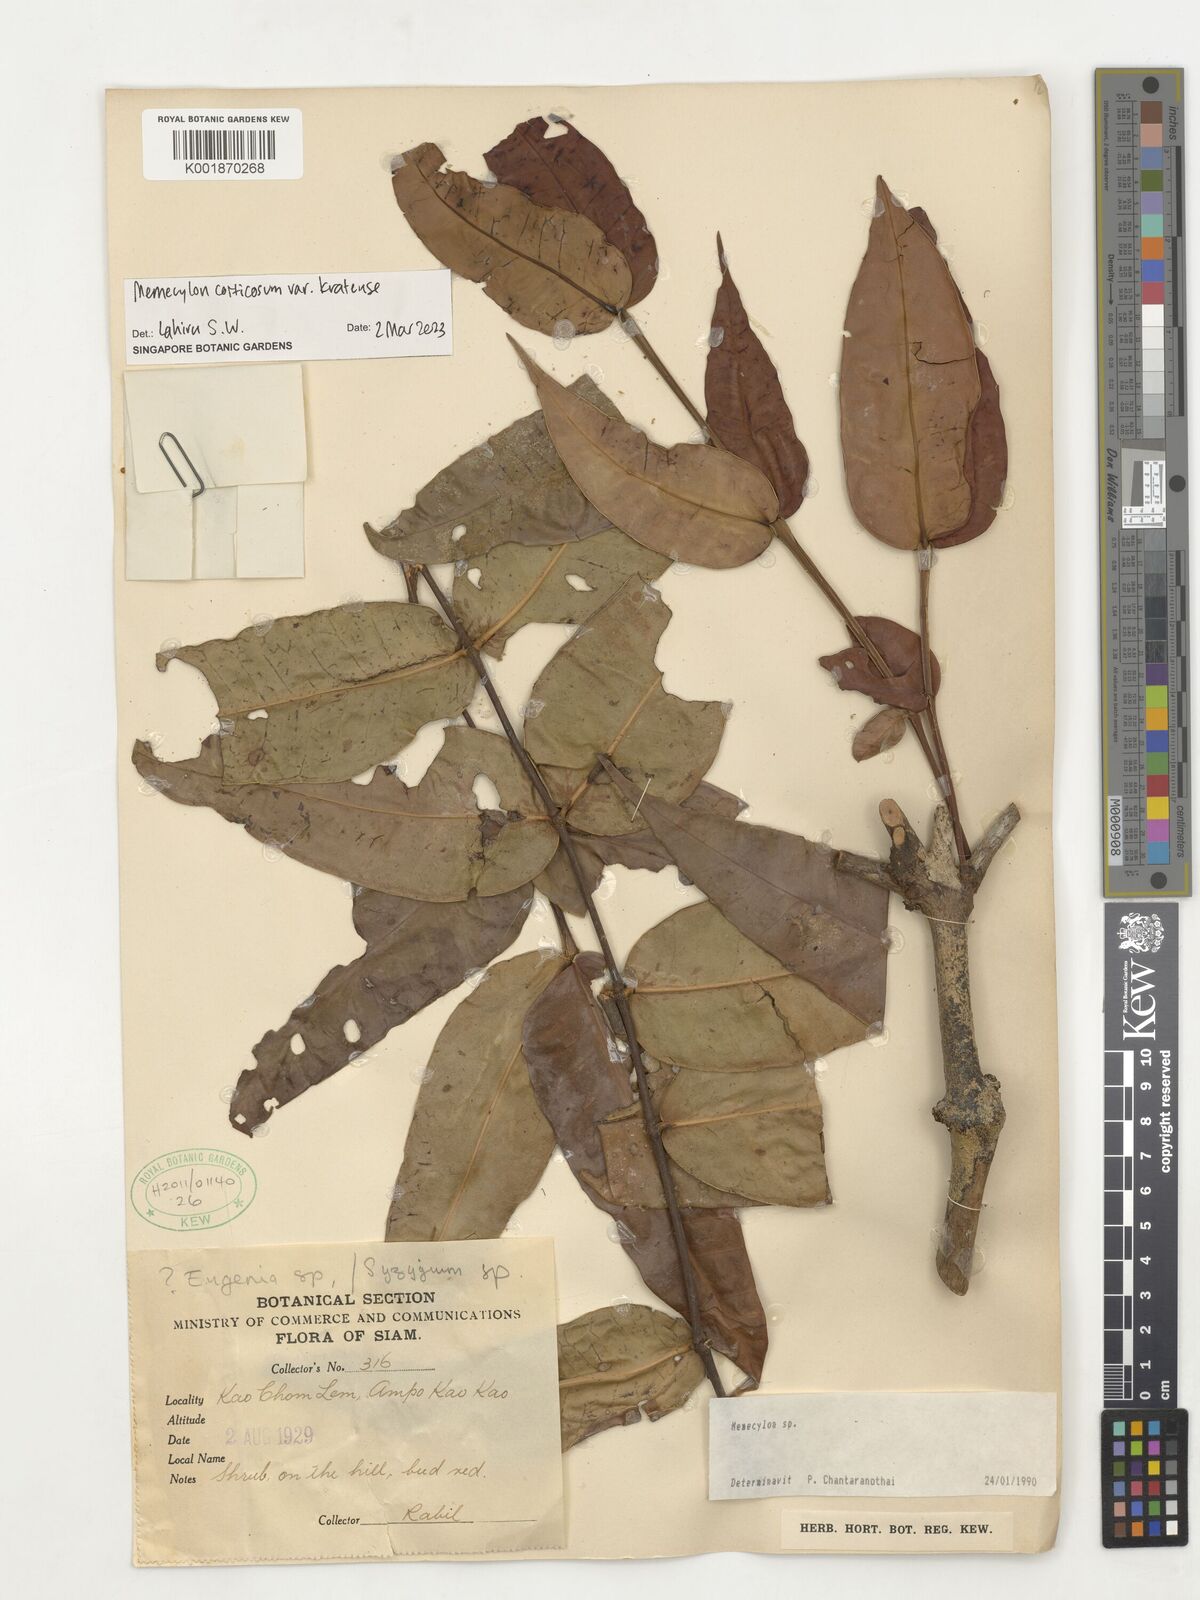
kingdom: Plantae
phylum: Tracheophyta
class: Magnoliopsida
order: Myrtales
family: Melastomataceae
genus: Memecylon
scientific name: Memecylon corticosum
